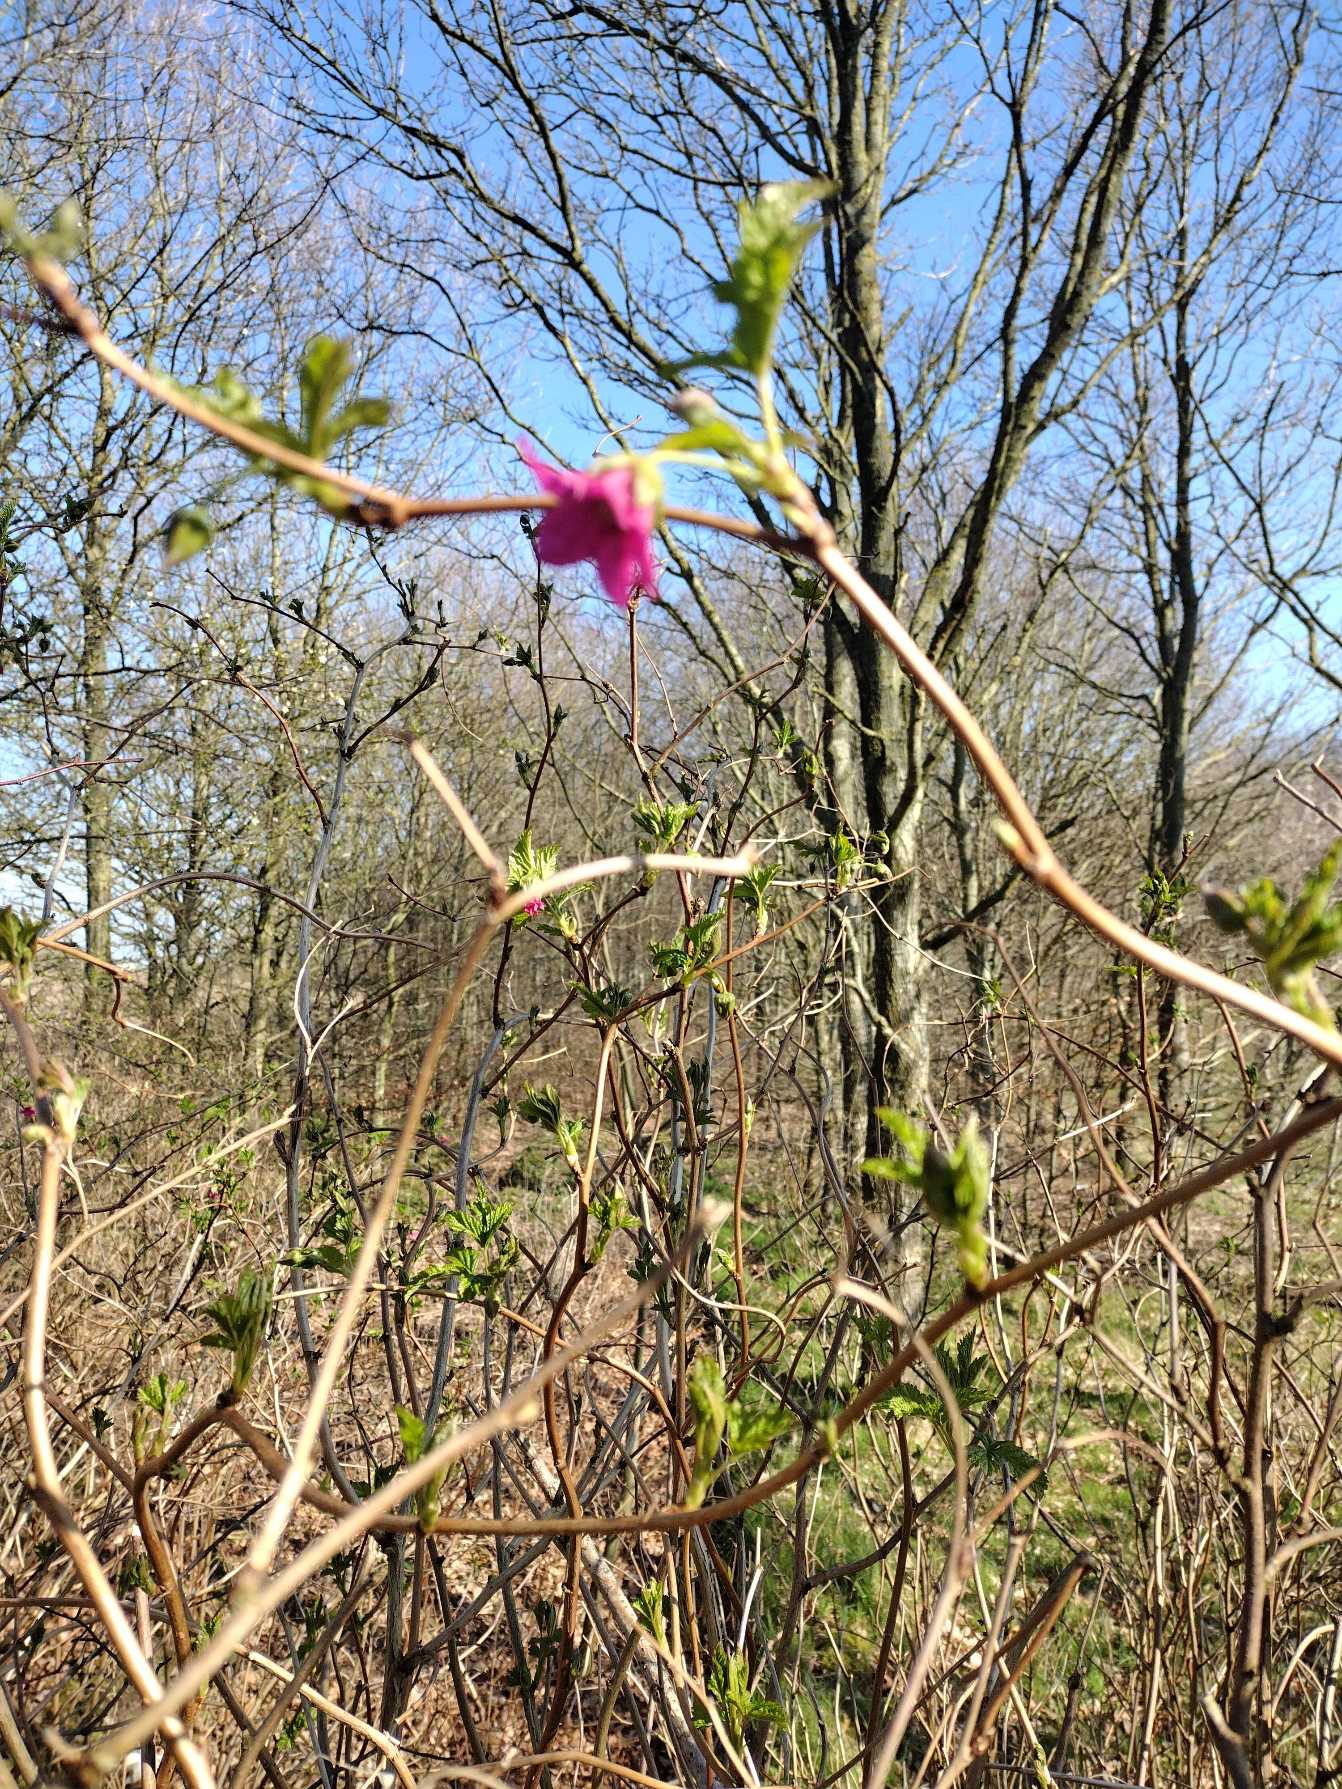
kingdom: Plantae
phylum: Tracheophyta
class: Magnoliopsida
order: Rosales
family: Rosaceae
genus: Rubus
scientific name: Rubus spectabilis
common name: Laksebær
